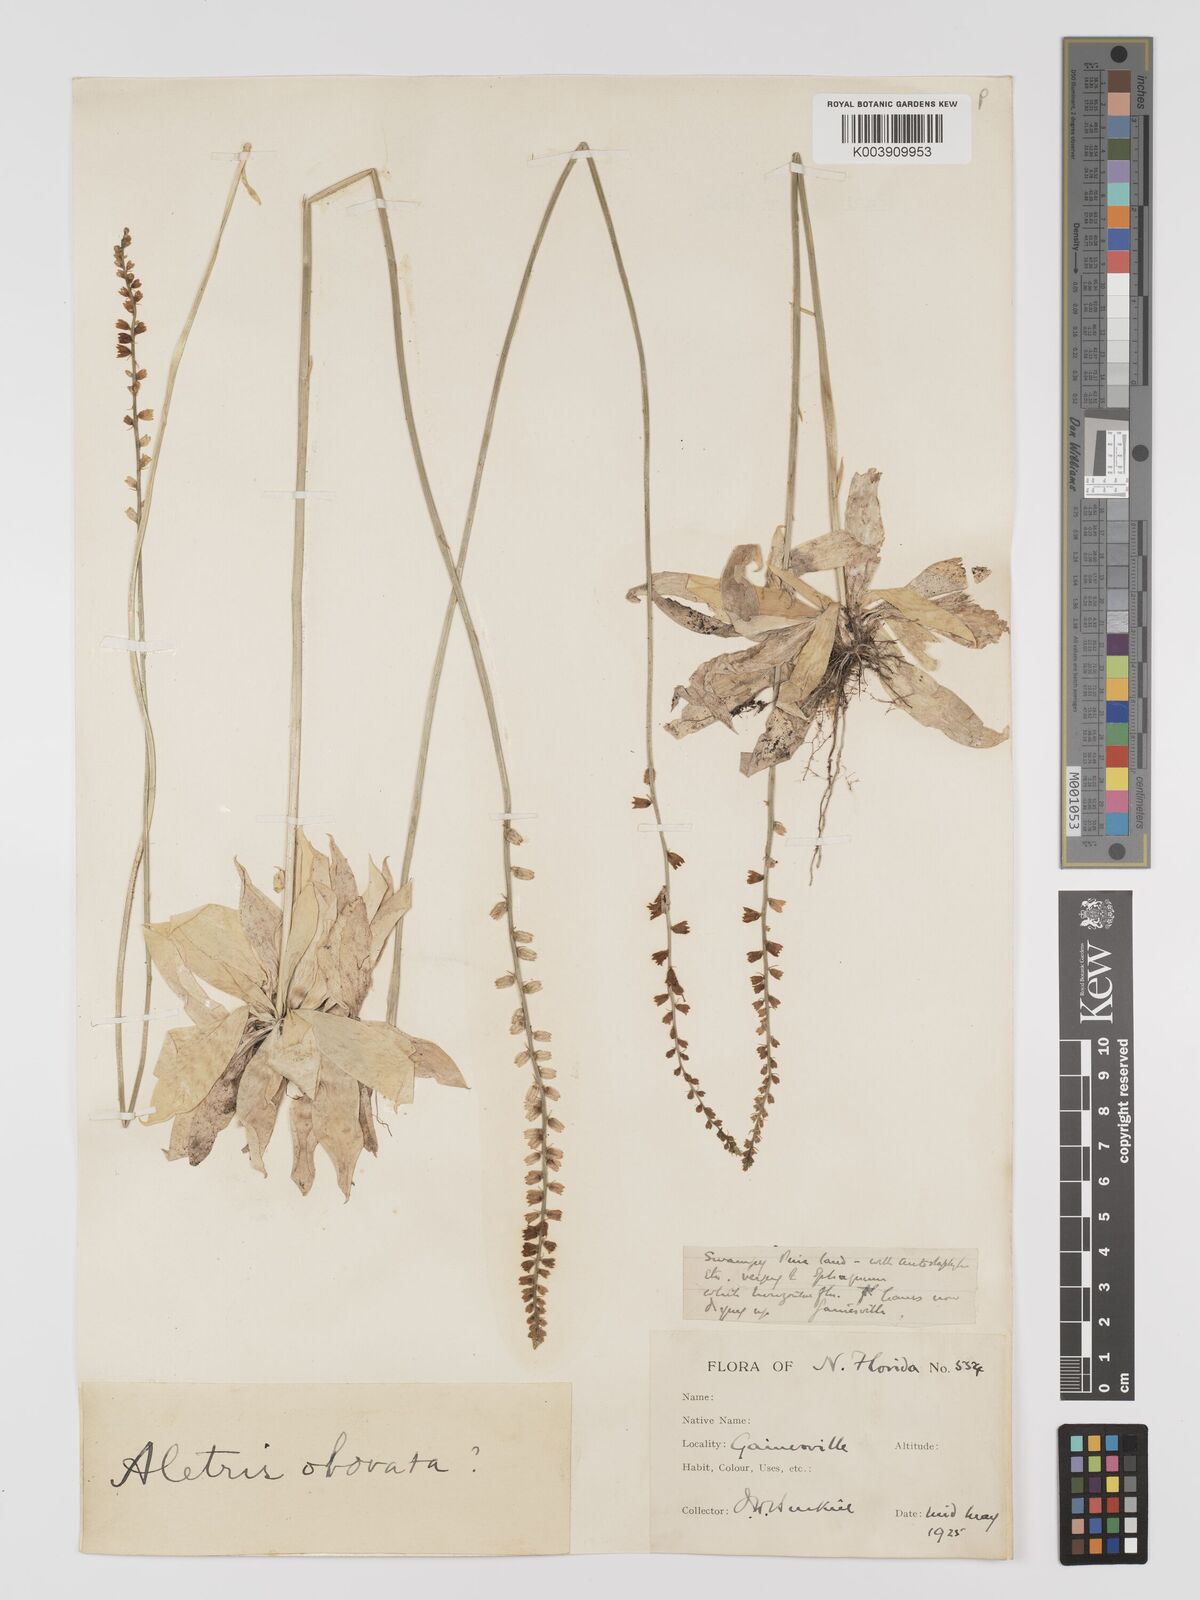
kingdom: Plantae
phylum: Tracheophyta
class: Liliopsida
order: Dioscoreales
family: Nartheciaceae
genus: Aletris
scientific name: Aletris obovata
